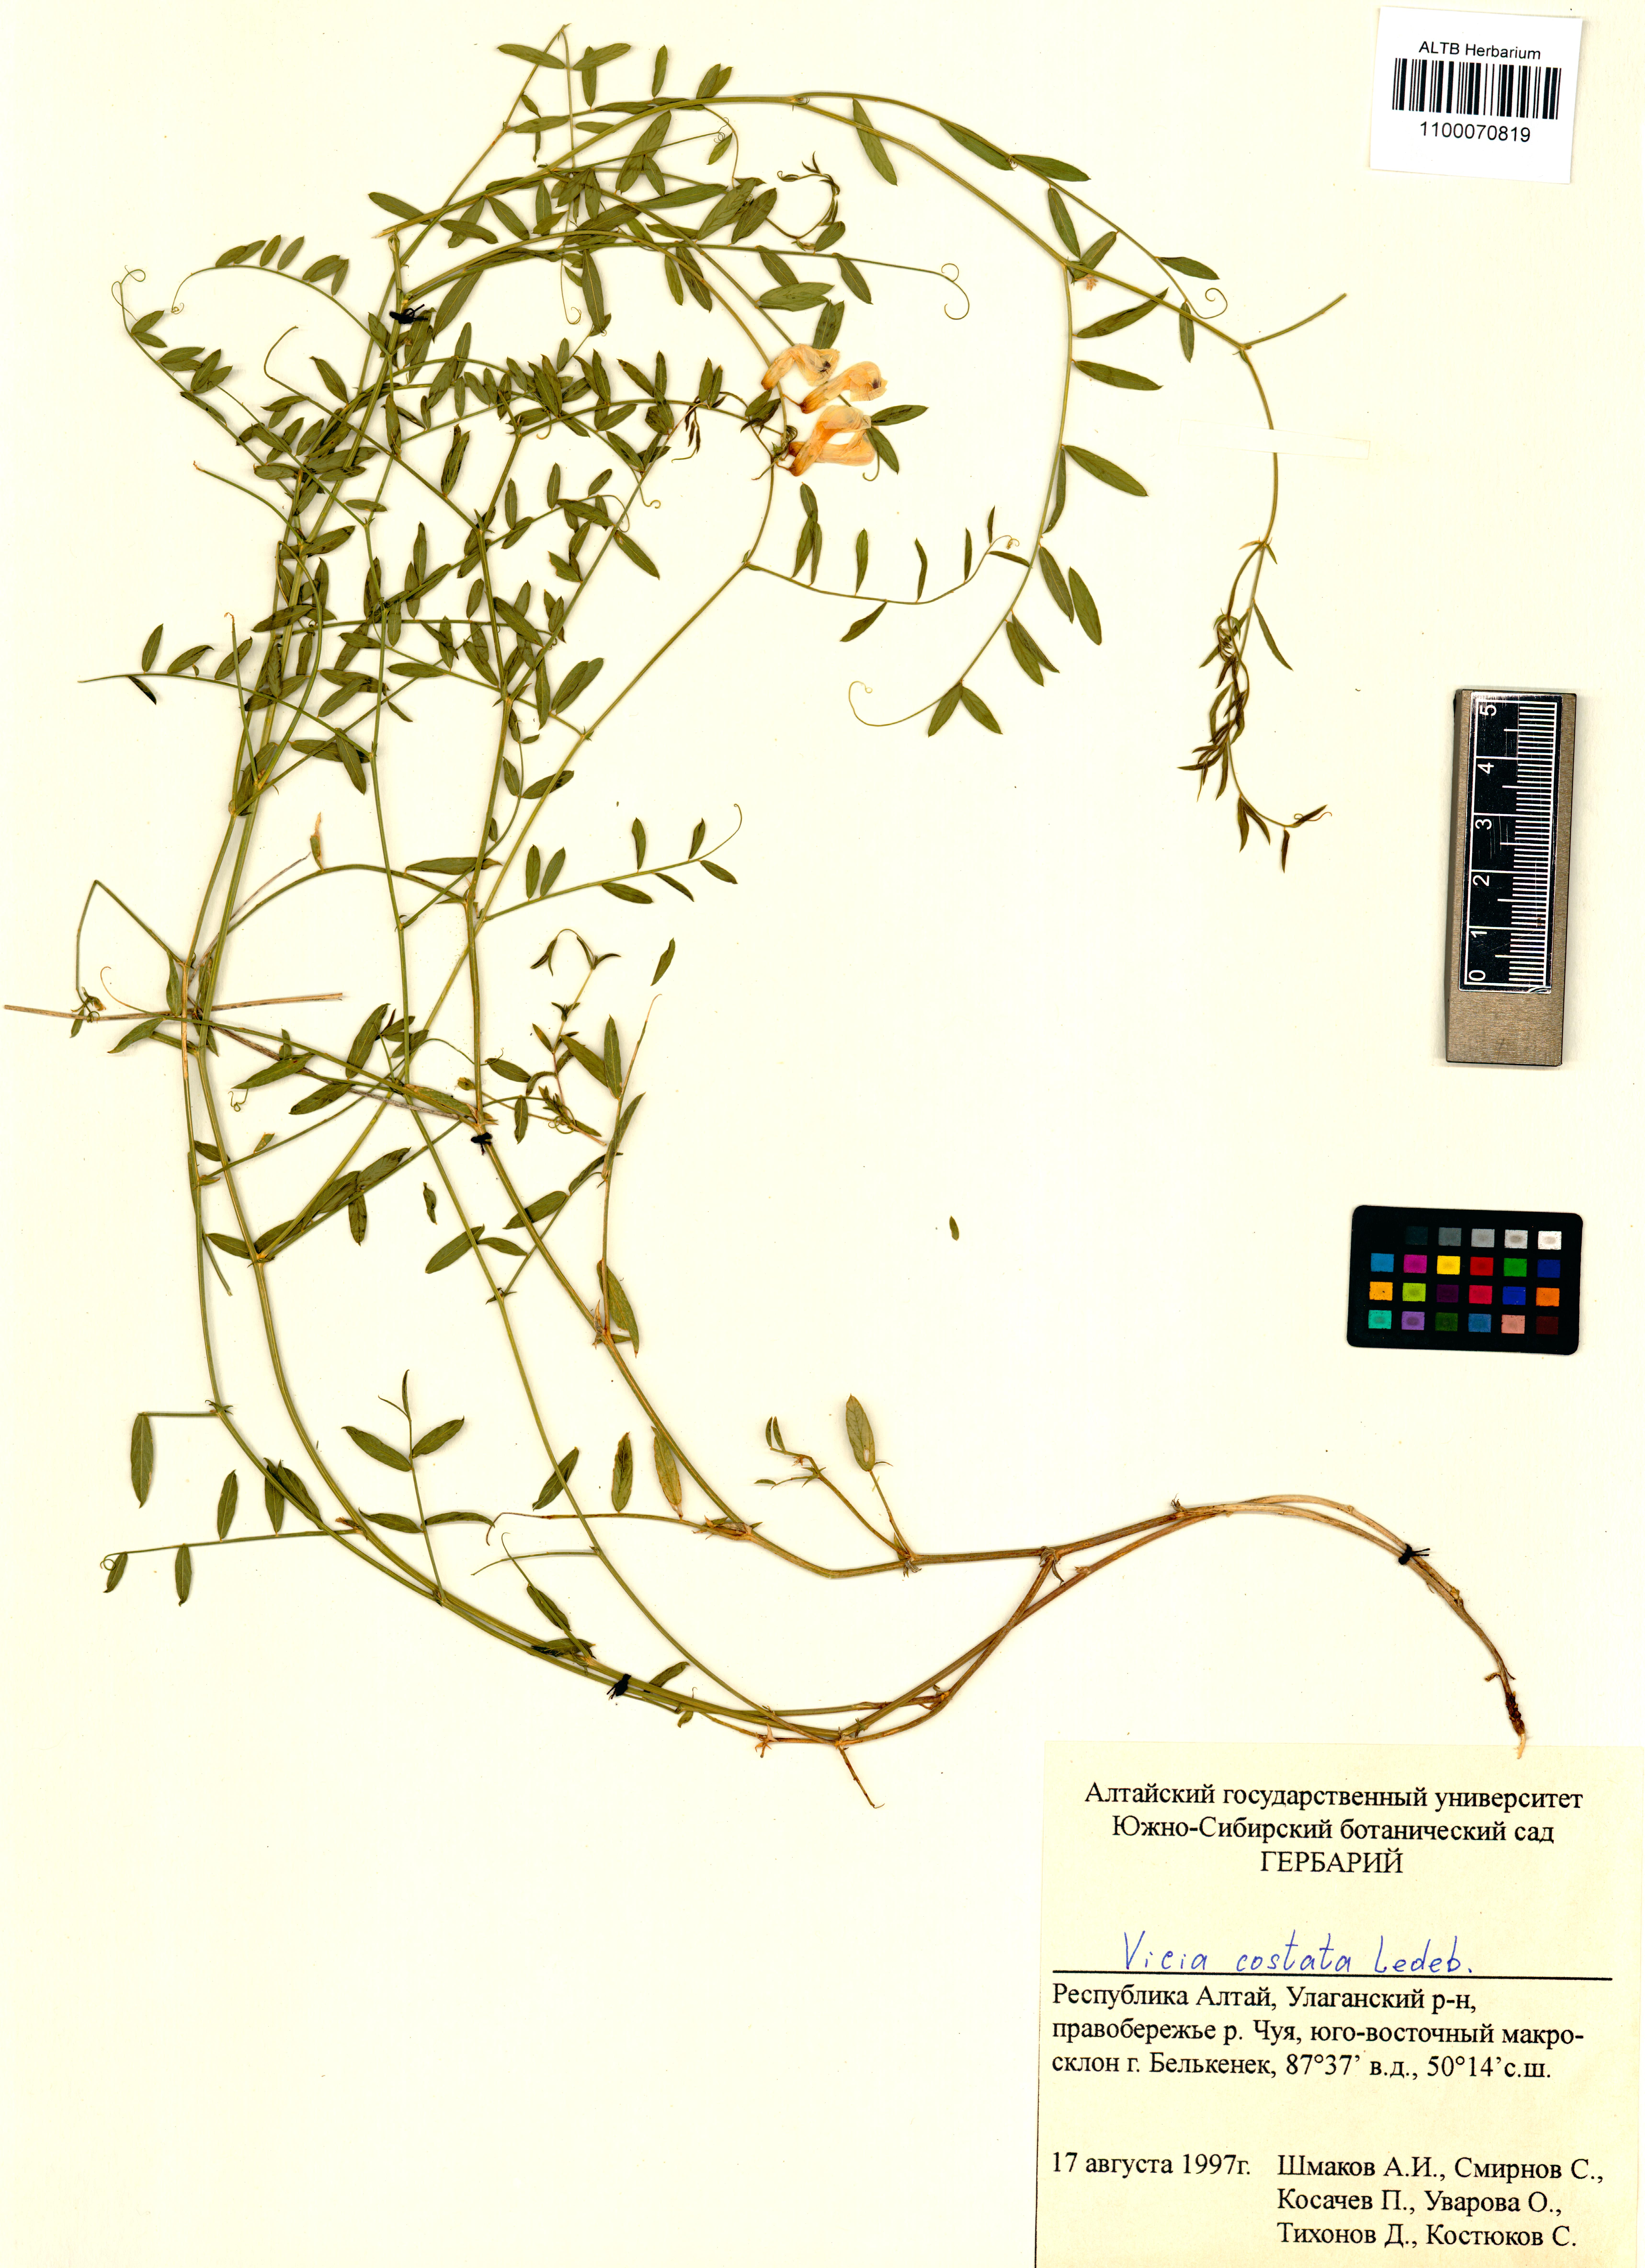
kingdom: Plantae
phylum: Tracheophyta
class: Magnoliopsida
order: Fabales
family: Fabaceae
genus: Vicia
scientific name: Vicia costata
